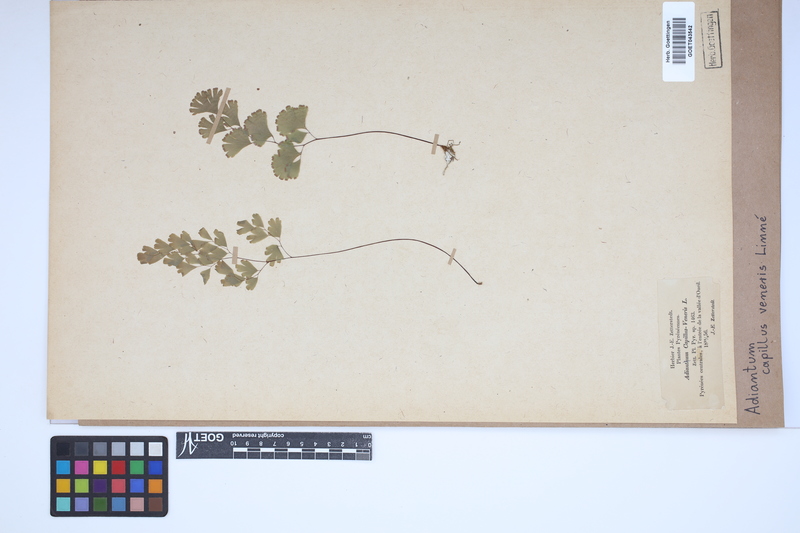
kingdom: Plantae
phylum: Tracheophyta
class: Polypodiopsida
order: Polypodiales
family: Pteridaceae
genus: Adiantum
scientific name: Adiantum capillus-veneris
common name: Maidenhair fern
